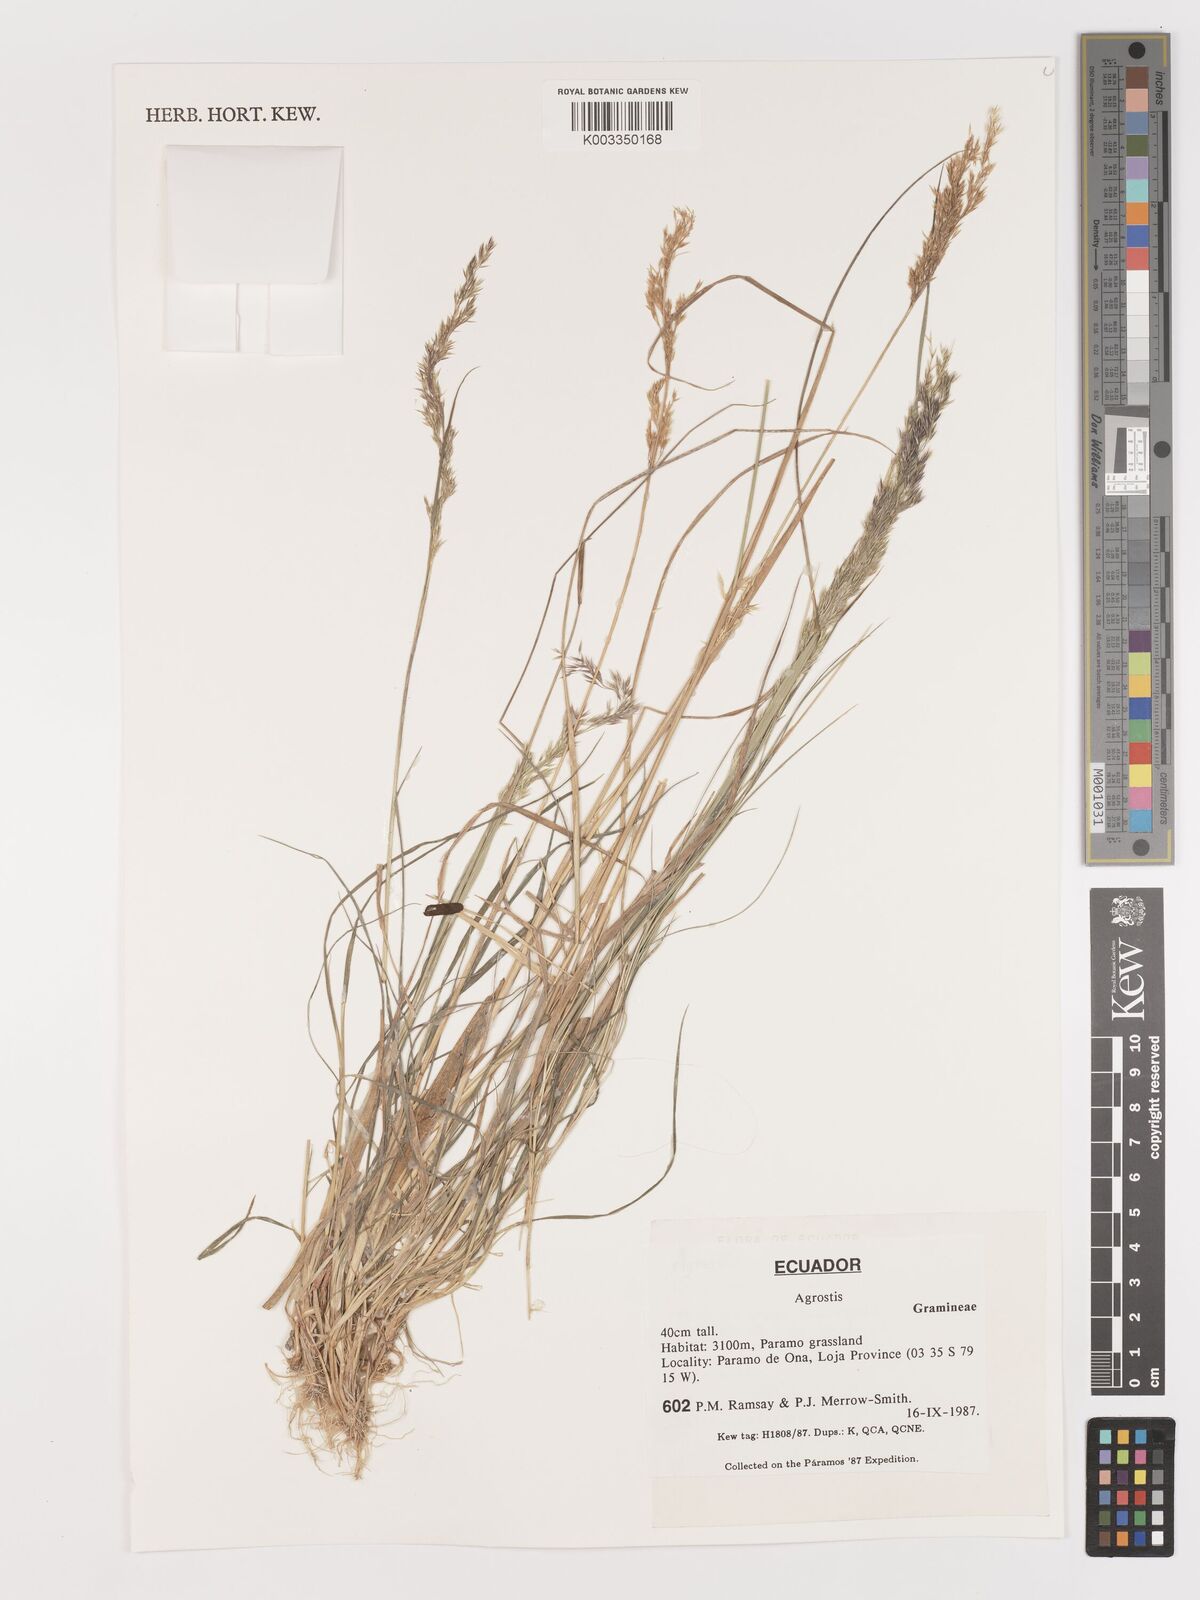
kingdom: Plantae
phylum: Tracheophyta
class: Liliopsida
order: Poales
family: Poaceae
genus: Agrostis
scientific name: Agrostis
